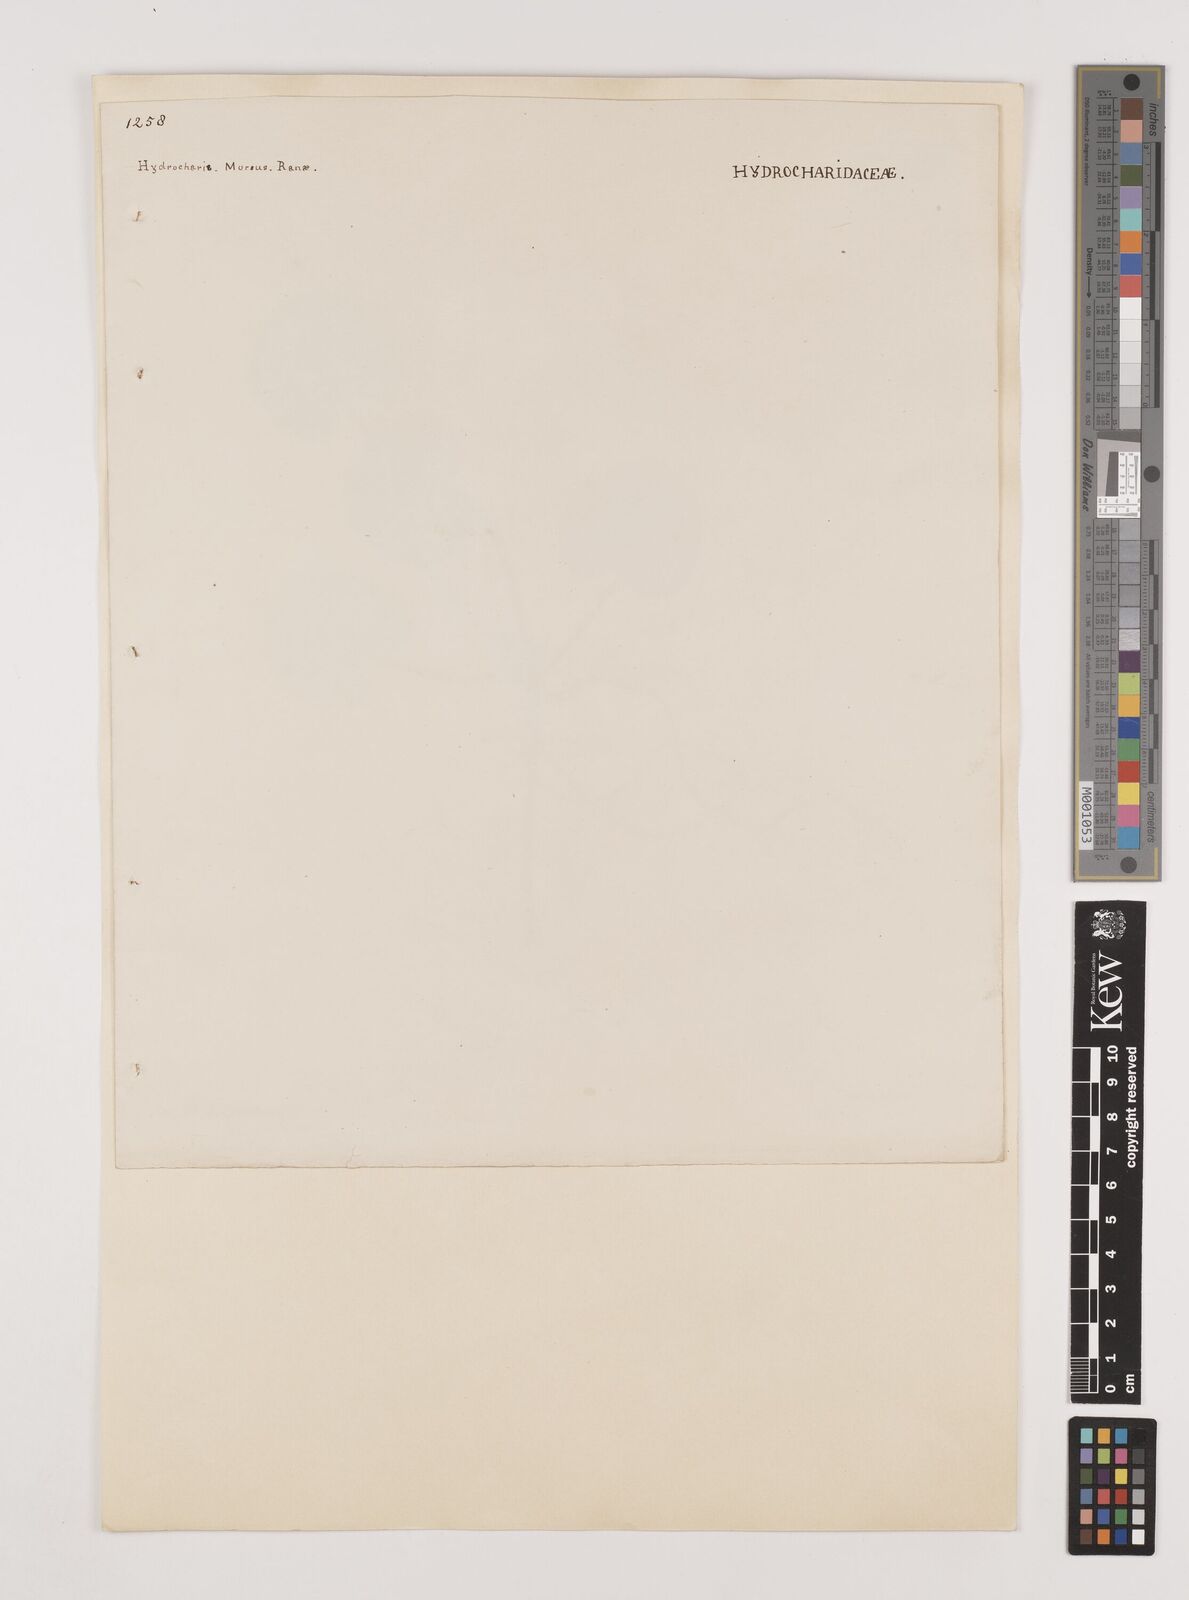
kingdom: Plantae
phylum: Tracheophyta
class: Liliopsida
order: Alismatales
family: Hydrocharitaceae
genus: Hydrocharis
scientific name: Hydrocharis morsus-ranae
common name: Frogbit
